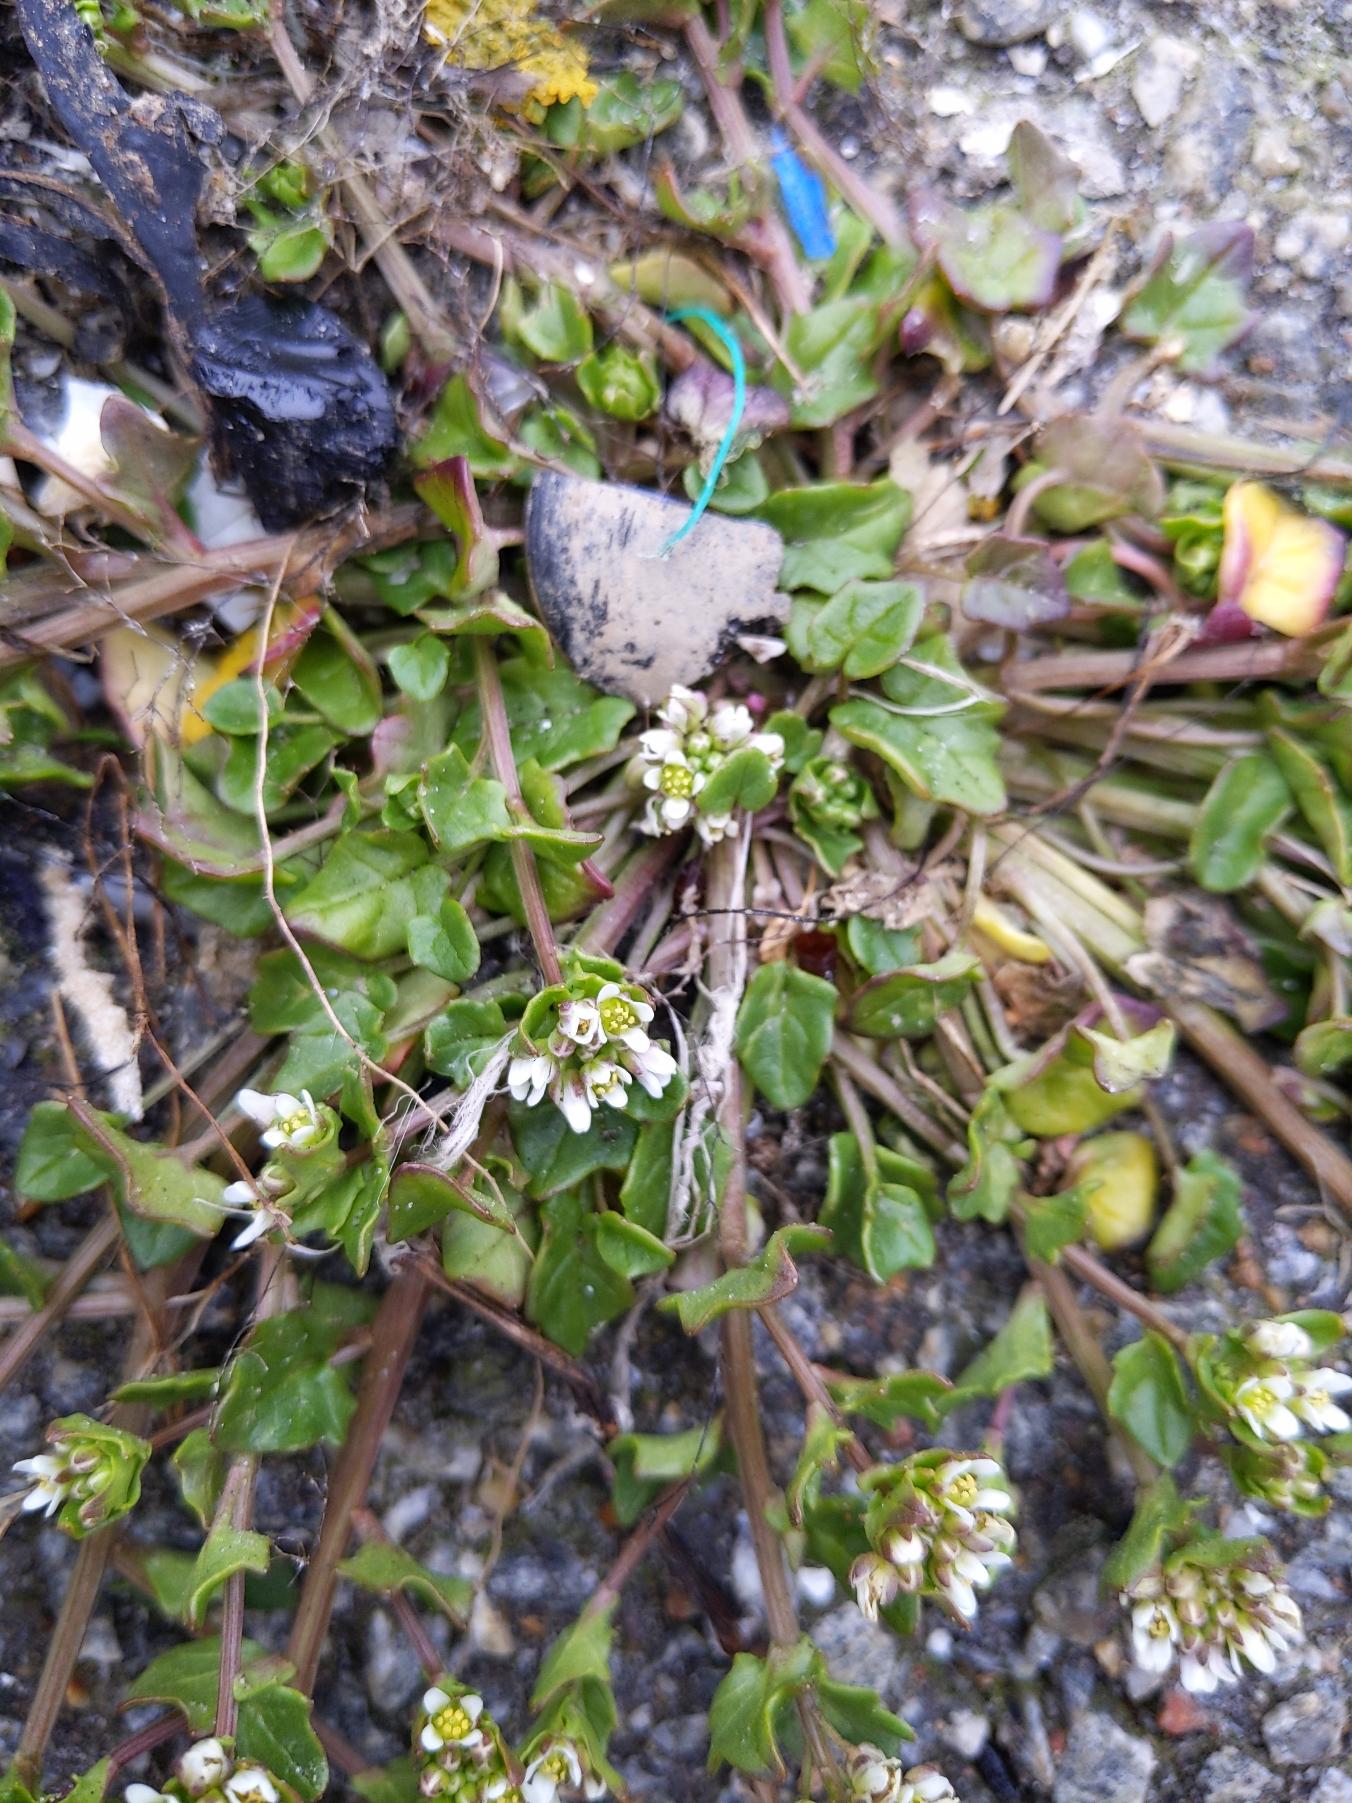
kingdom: Plantae
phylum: Tracheophyta
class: Magnoliopsida
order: Brassicales
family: Brassicaceae
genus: Cochlearia
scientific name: Cochlearia danica
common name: Dansk kokleare
